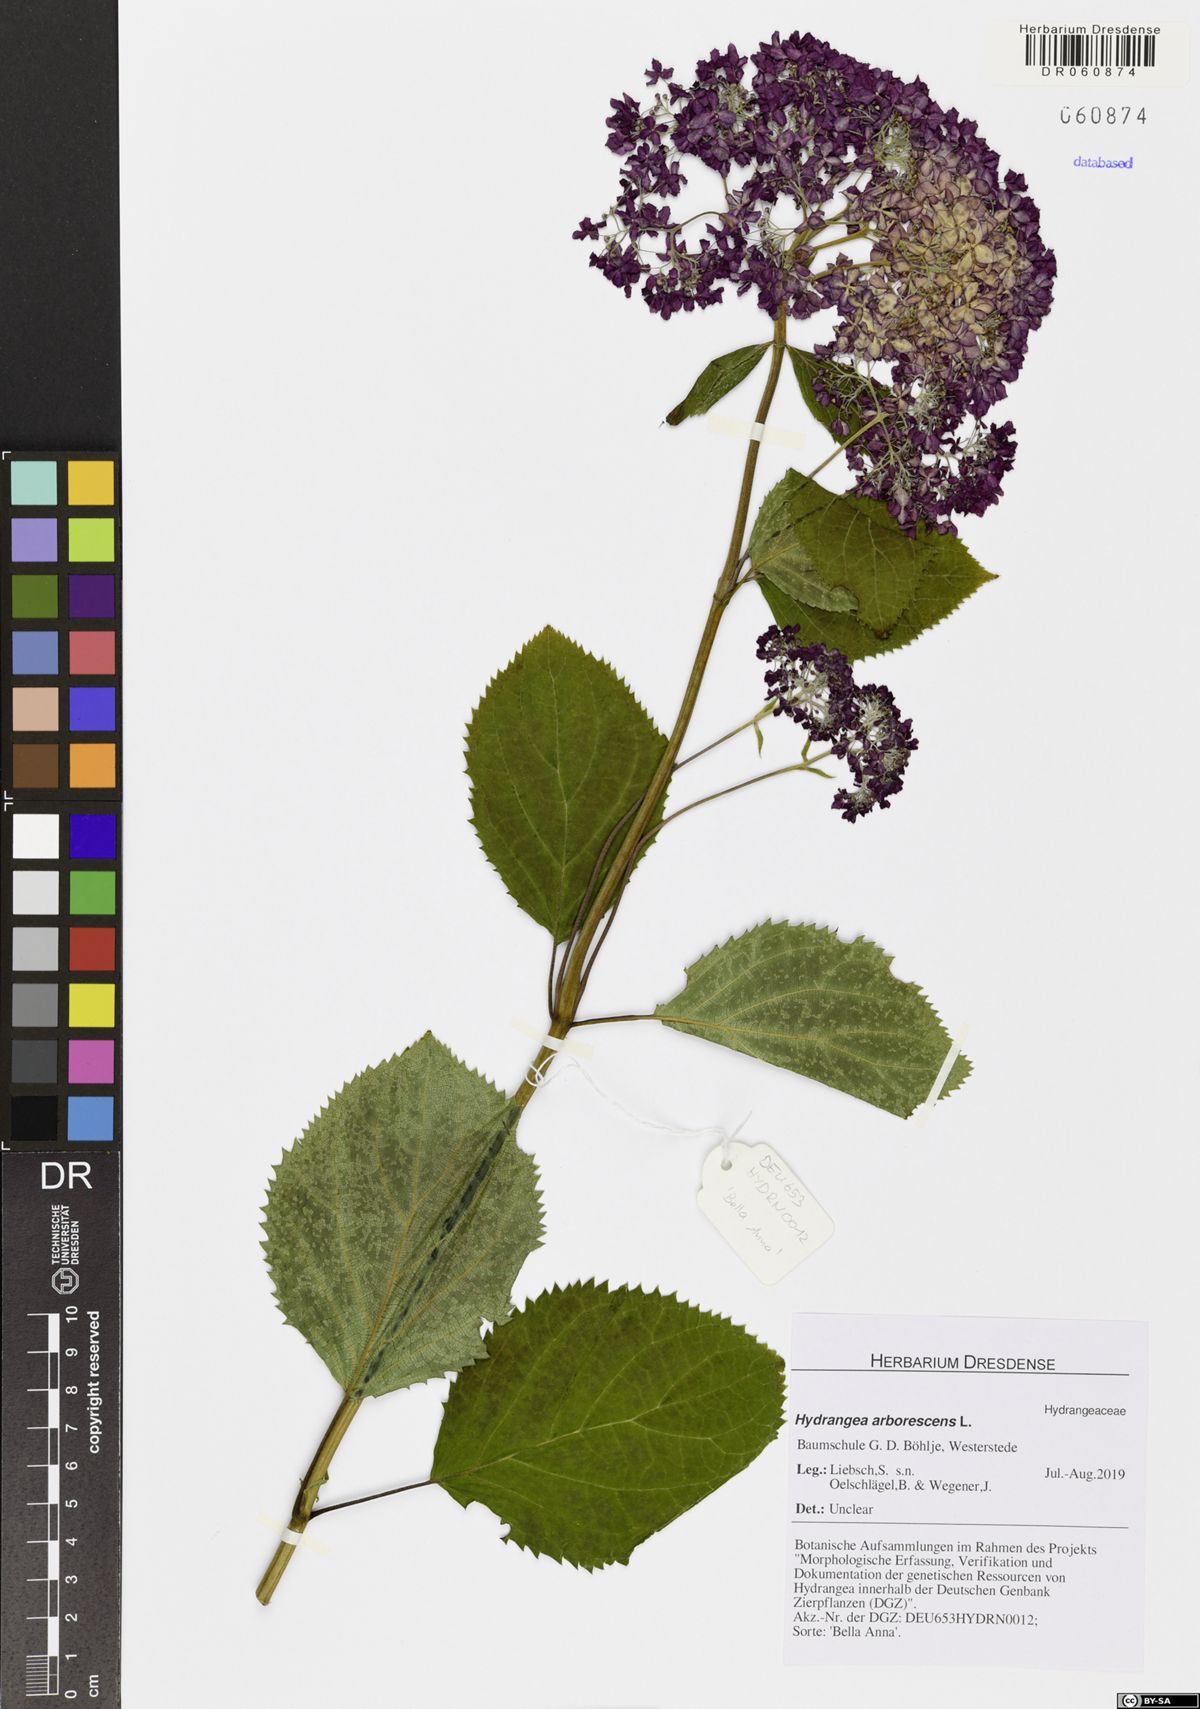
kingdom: Plantae
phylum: Tracheophyta
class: Magnoliopsida
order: Cornales
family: Hydrangeaceae
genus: Hydrangea
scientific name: Hydrangea arborescens
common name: Sevenbark
